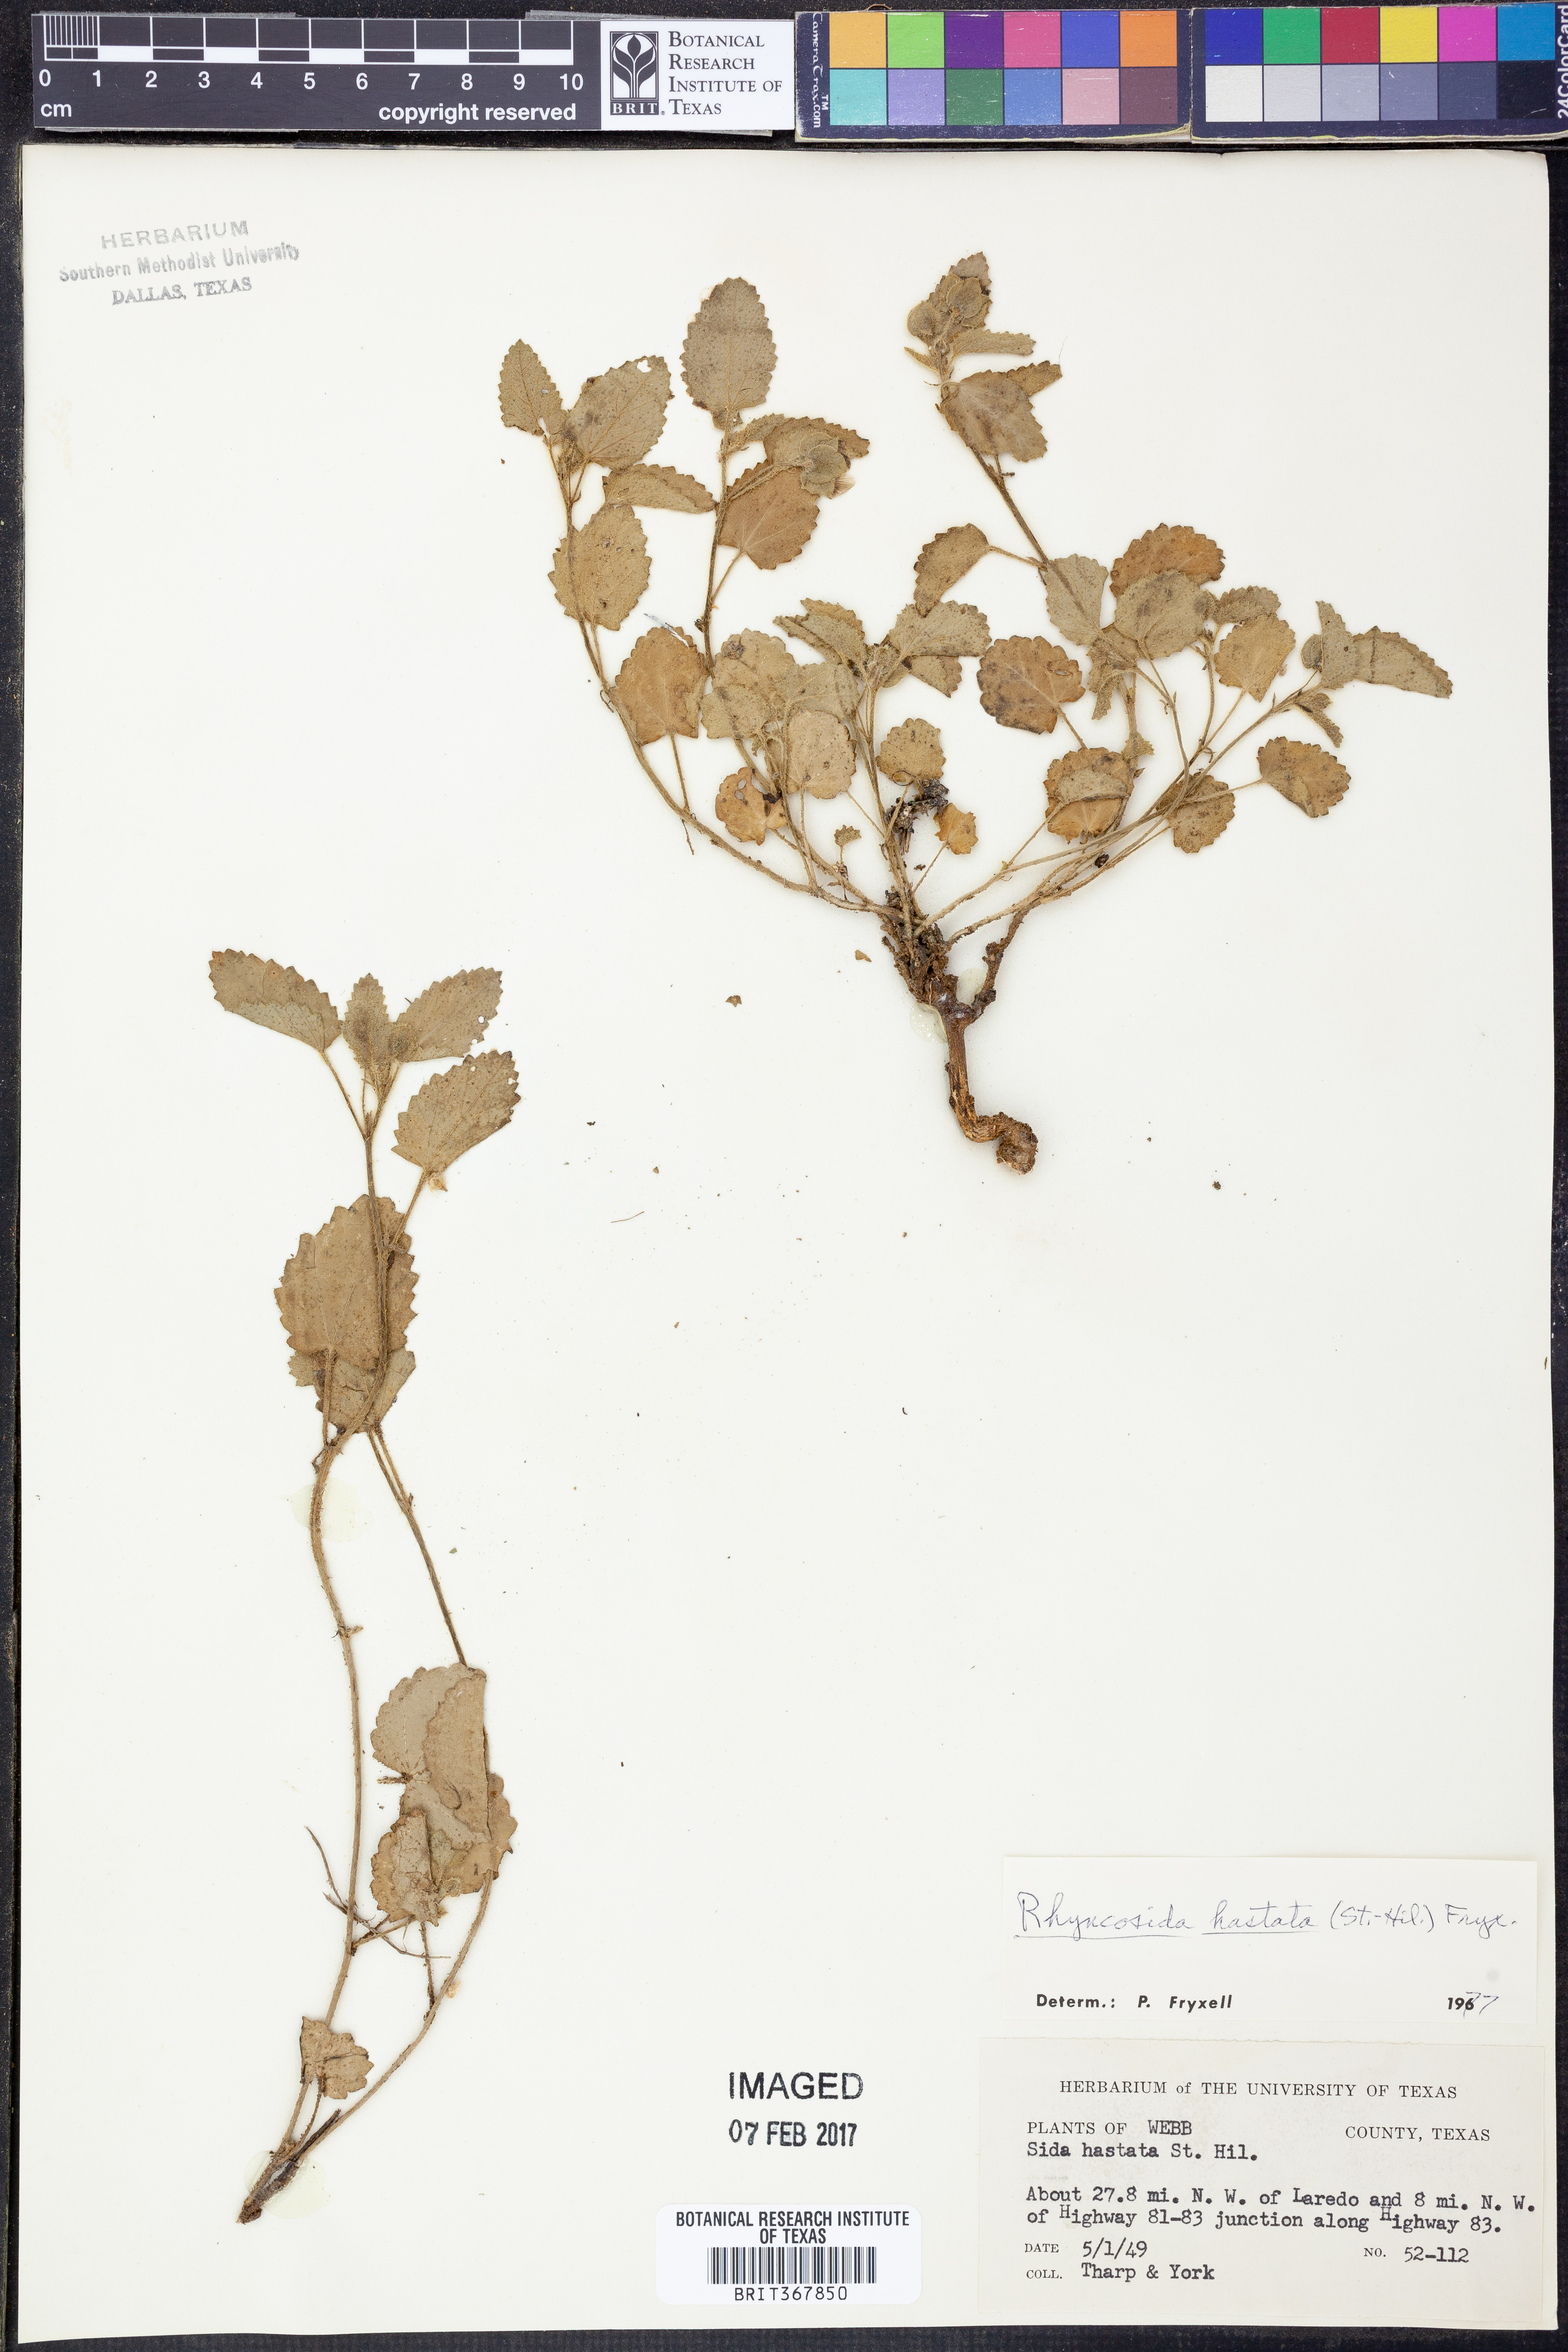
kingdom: Plantae
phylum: Tracheophyta
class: Magnoliopsida
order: Malvales
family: Malvaceae
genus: Rhynchosida
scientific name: Rhynchosida
